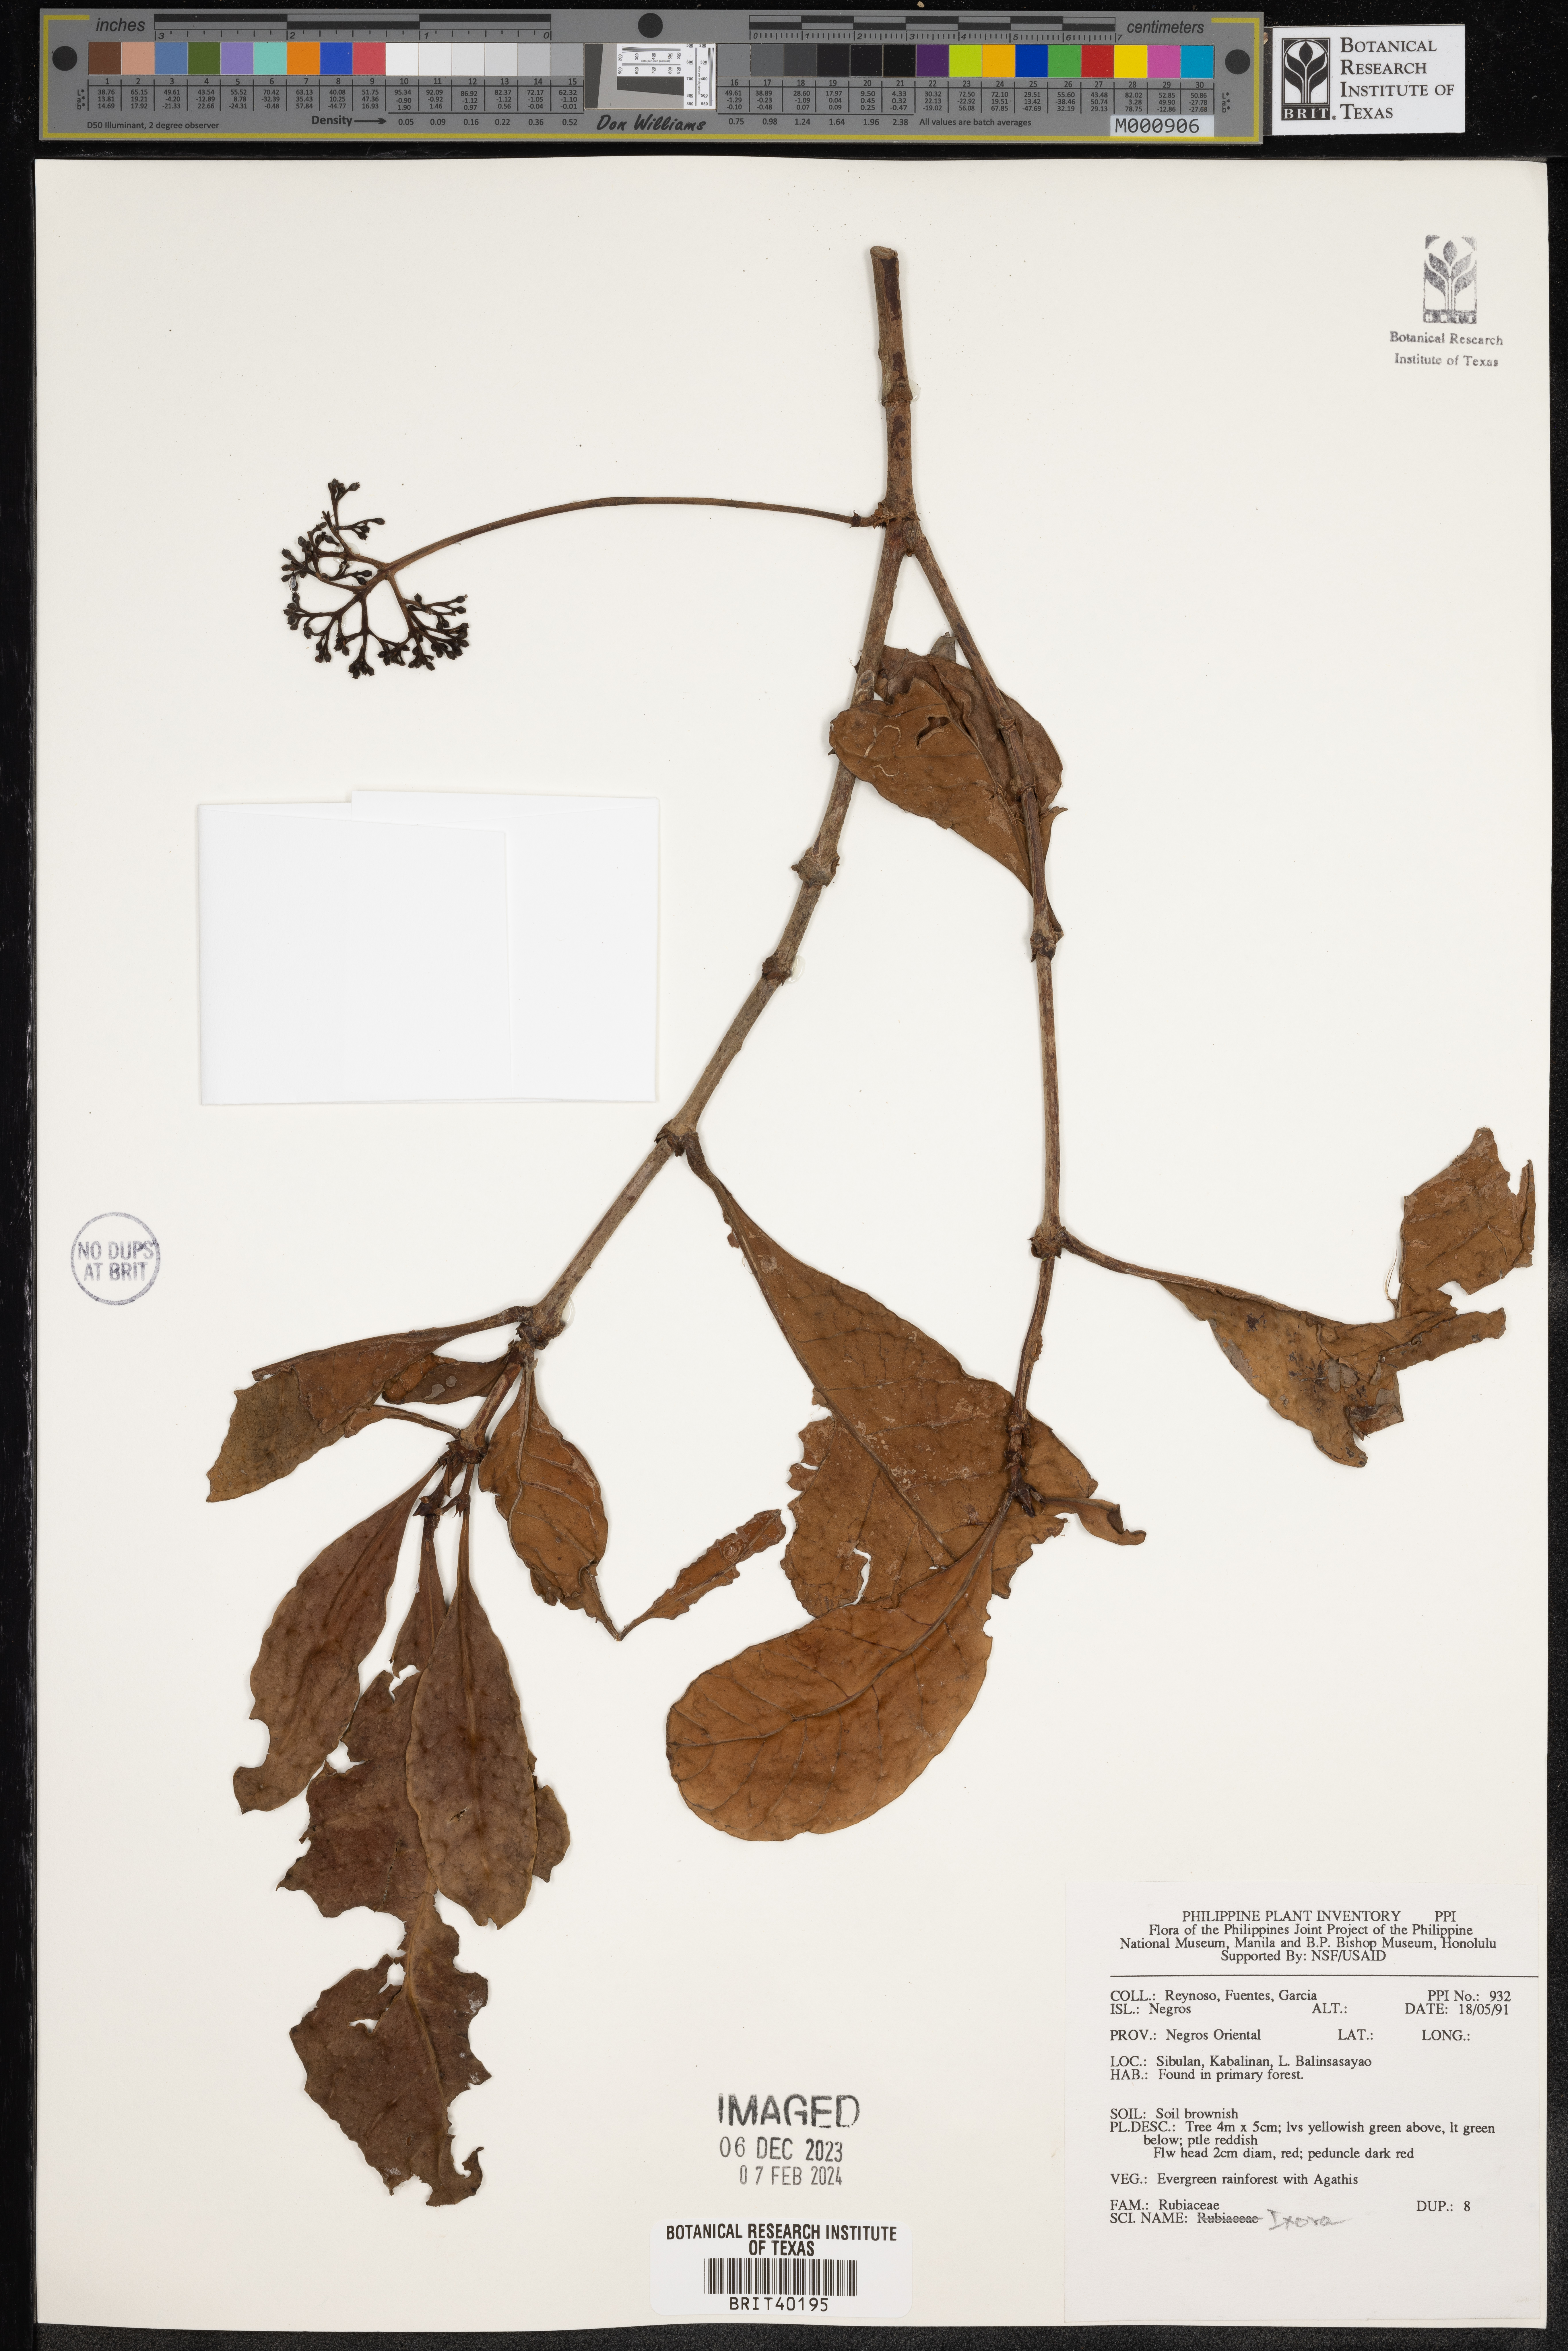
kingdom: Plantae
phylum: Tracheophyta
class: Magnoliopsida
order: Gentianales
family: Rubiaceae
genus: Ixora
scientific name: Ixora
